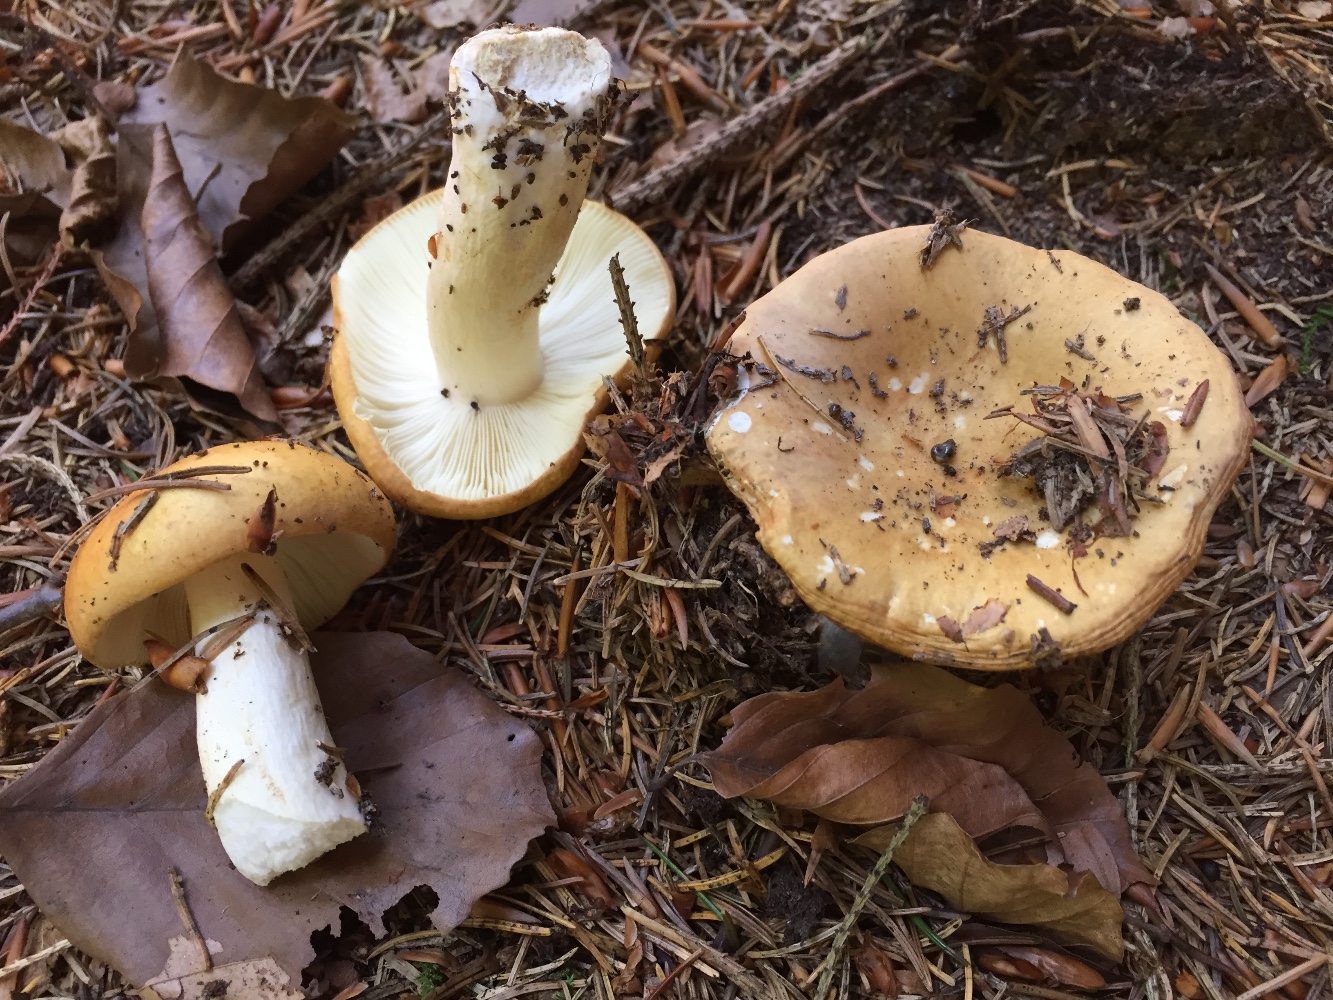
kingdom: Fungi
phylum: Basidiomycota
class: Agaricomycetes
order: Russulales
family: Russulaceae
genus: Russula
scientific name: Russula ochroleuca
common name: okkergul skørhat
